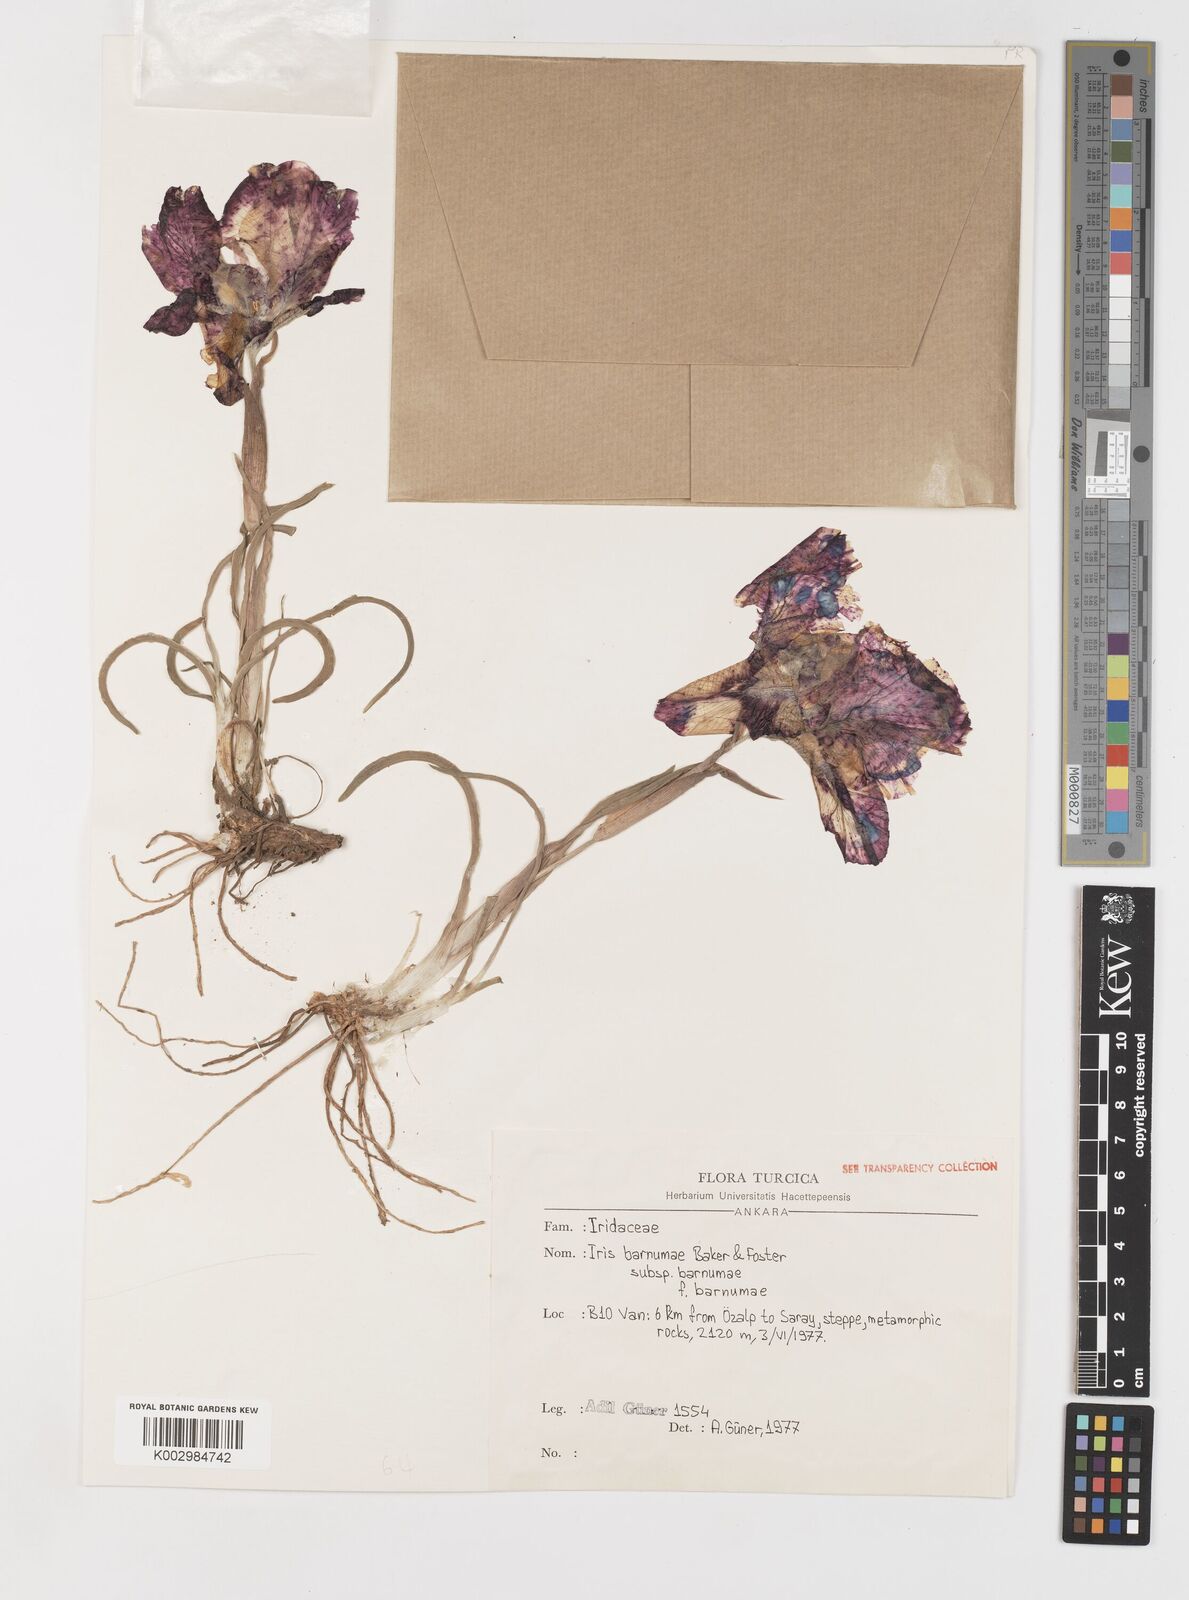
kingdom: Plantae
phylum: Tracheophyta
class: Liliopsida
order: Asparagales
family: Iridaceae
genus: Iris
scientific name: Iris barnumiae
